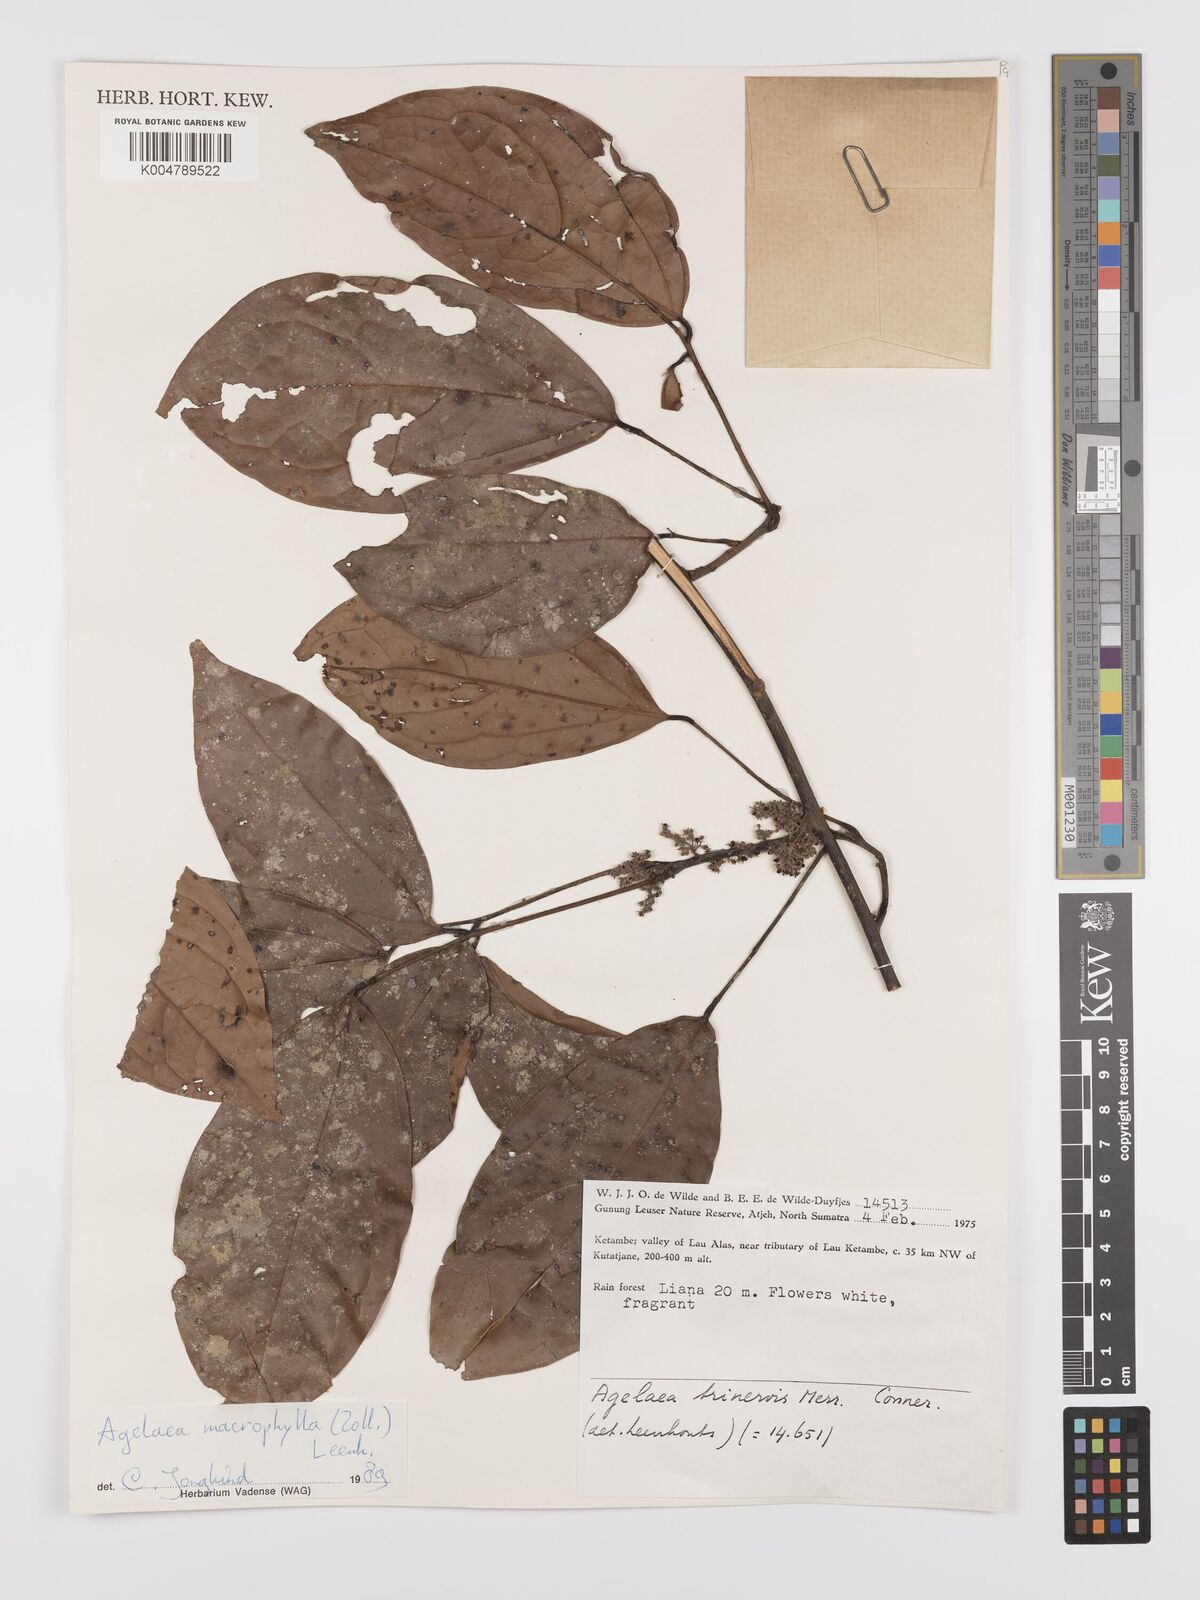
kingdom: Plantae
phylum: Tracheophyta
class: Magnoliopsida
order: Oxalidales
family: Connaraceae
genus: Agelaea
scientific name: Agelaea trinervis
